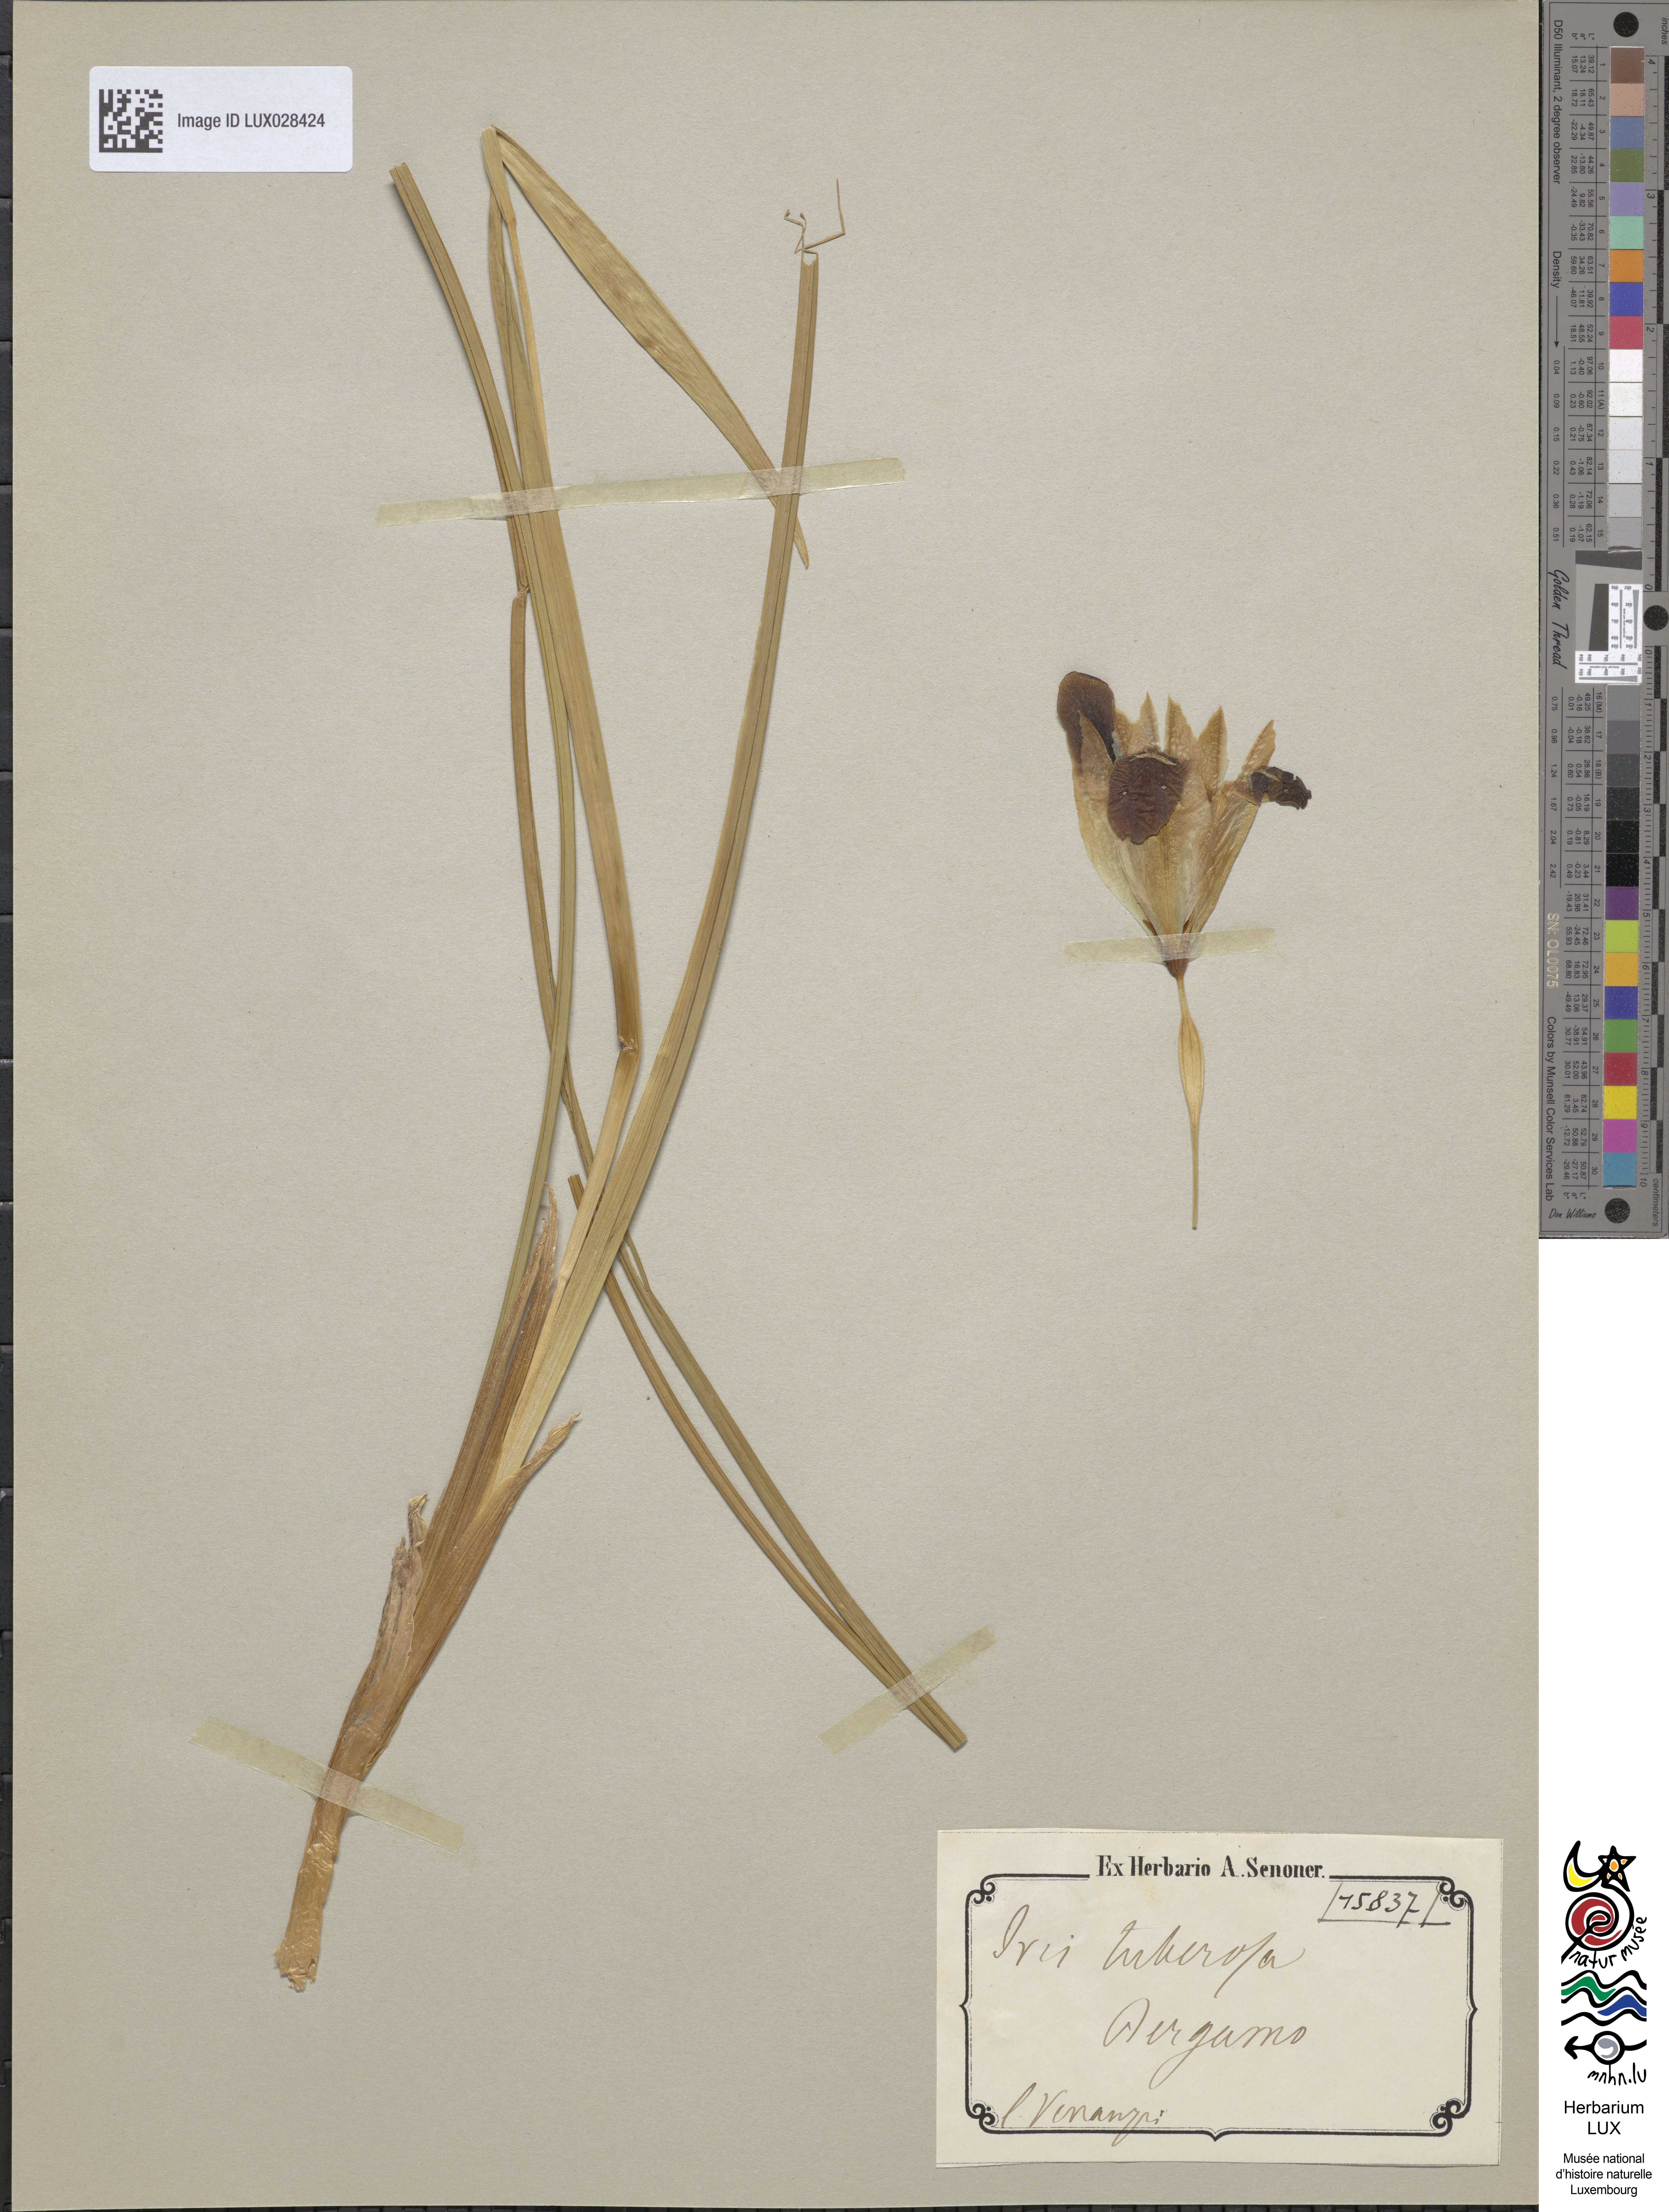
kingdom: Plantae
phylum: Tracheophyta
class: Liliopsida
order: Asparagales
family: Iridaceae
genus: Iris
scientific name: Iris tuberosa
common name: Snake's-head iris
